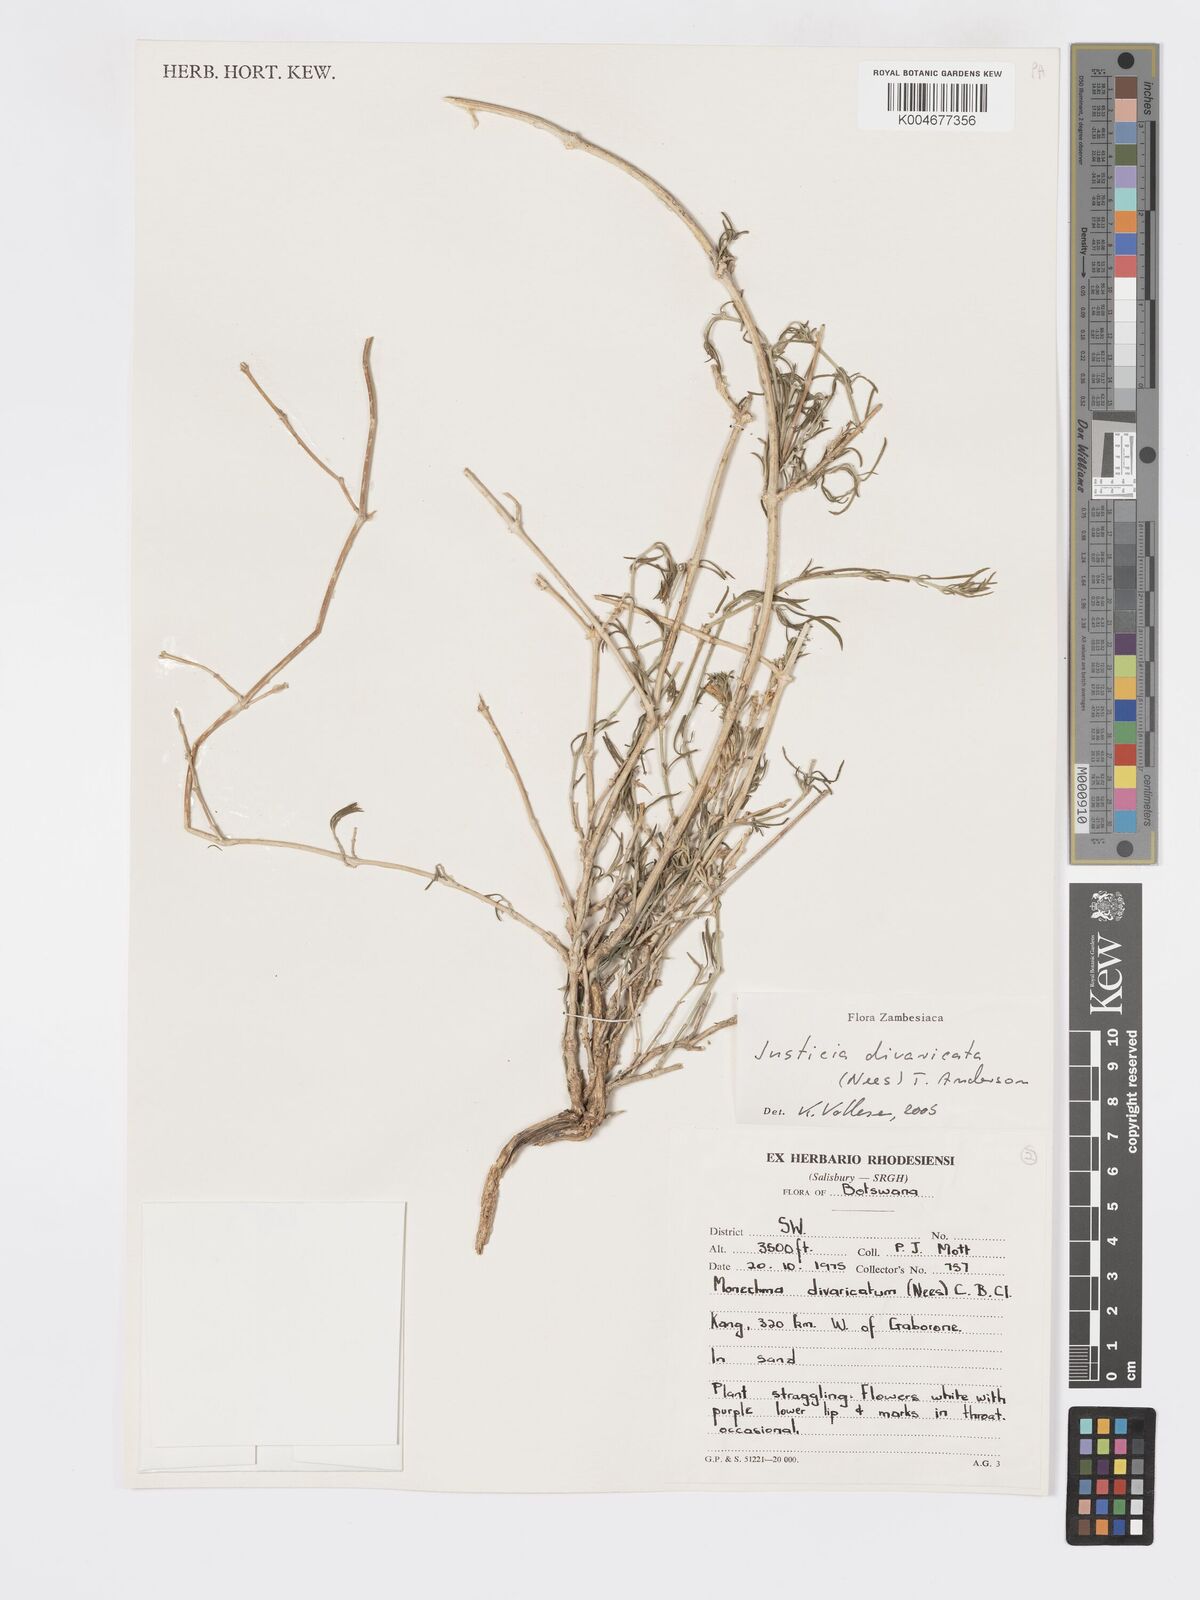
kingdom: Plantae
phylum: Tracheophyta
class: Magnoliopsida
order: Lamiales
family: Acanthaceae
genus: Pogonospermum
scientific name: Pogonospermum
